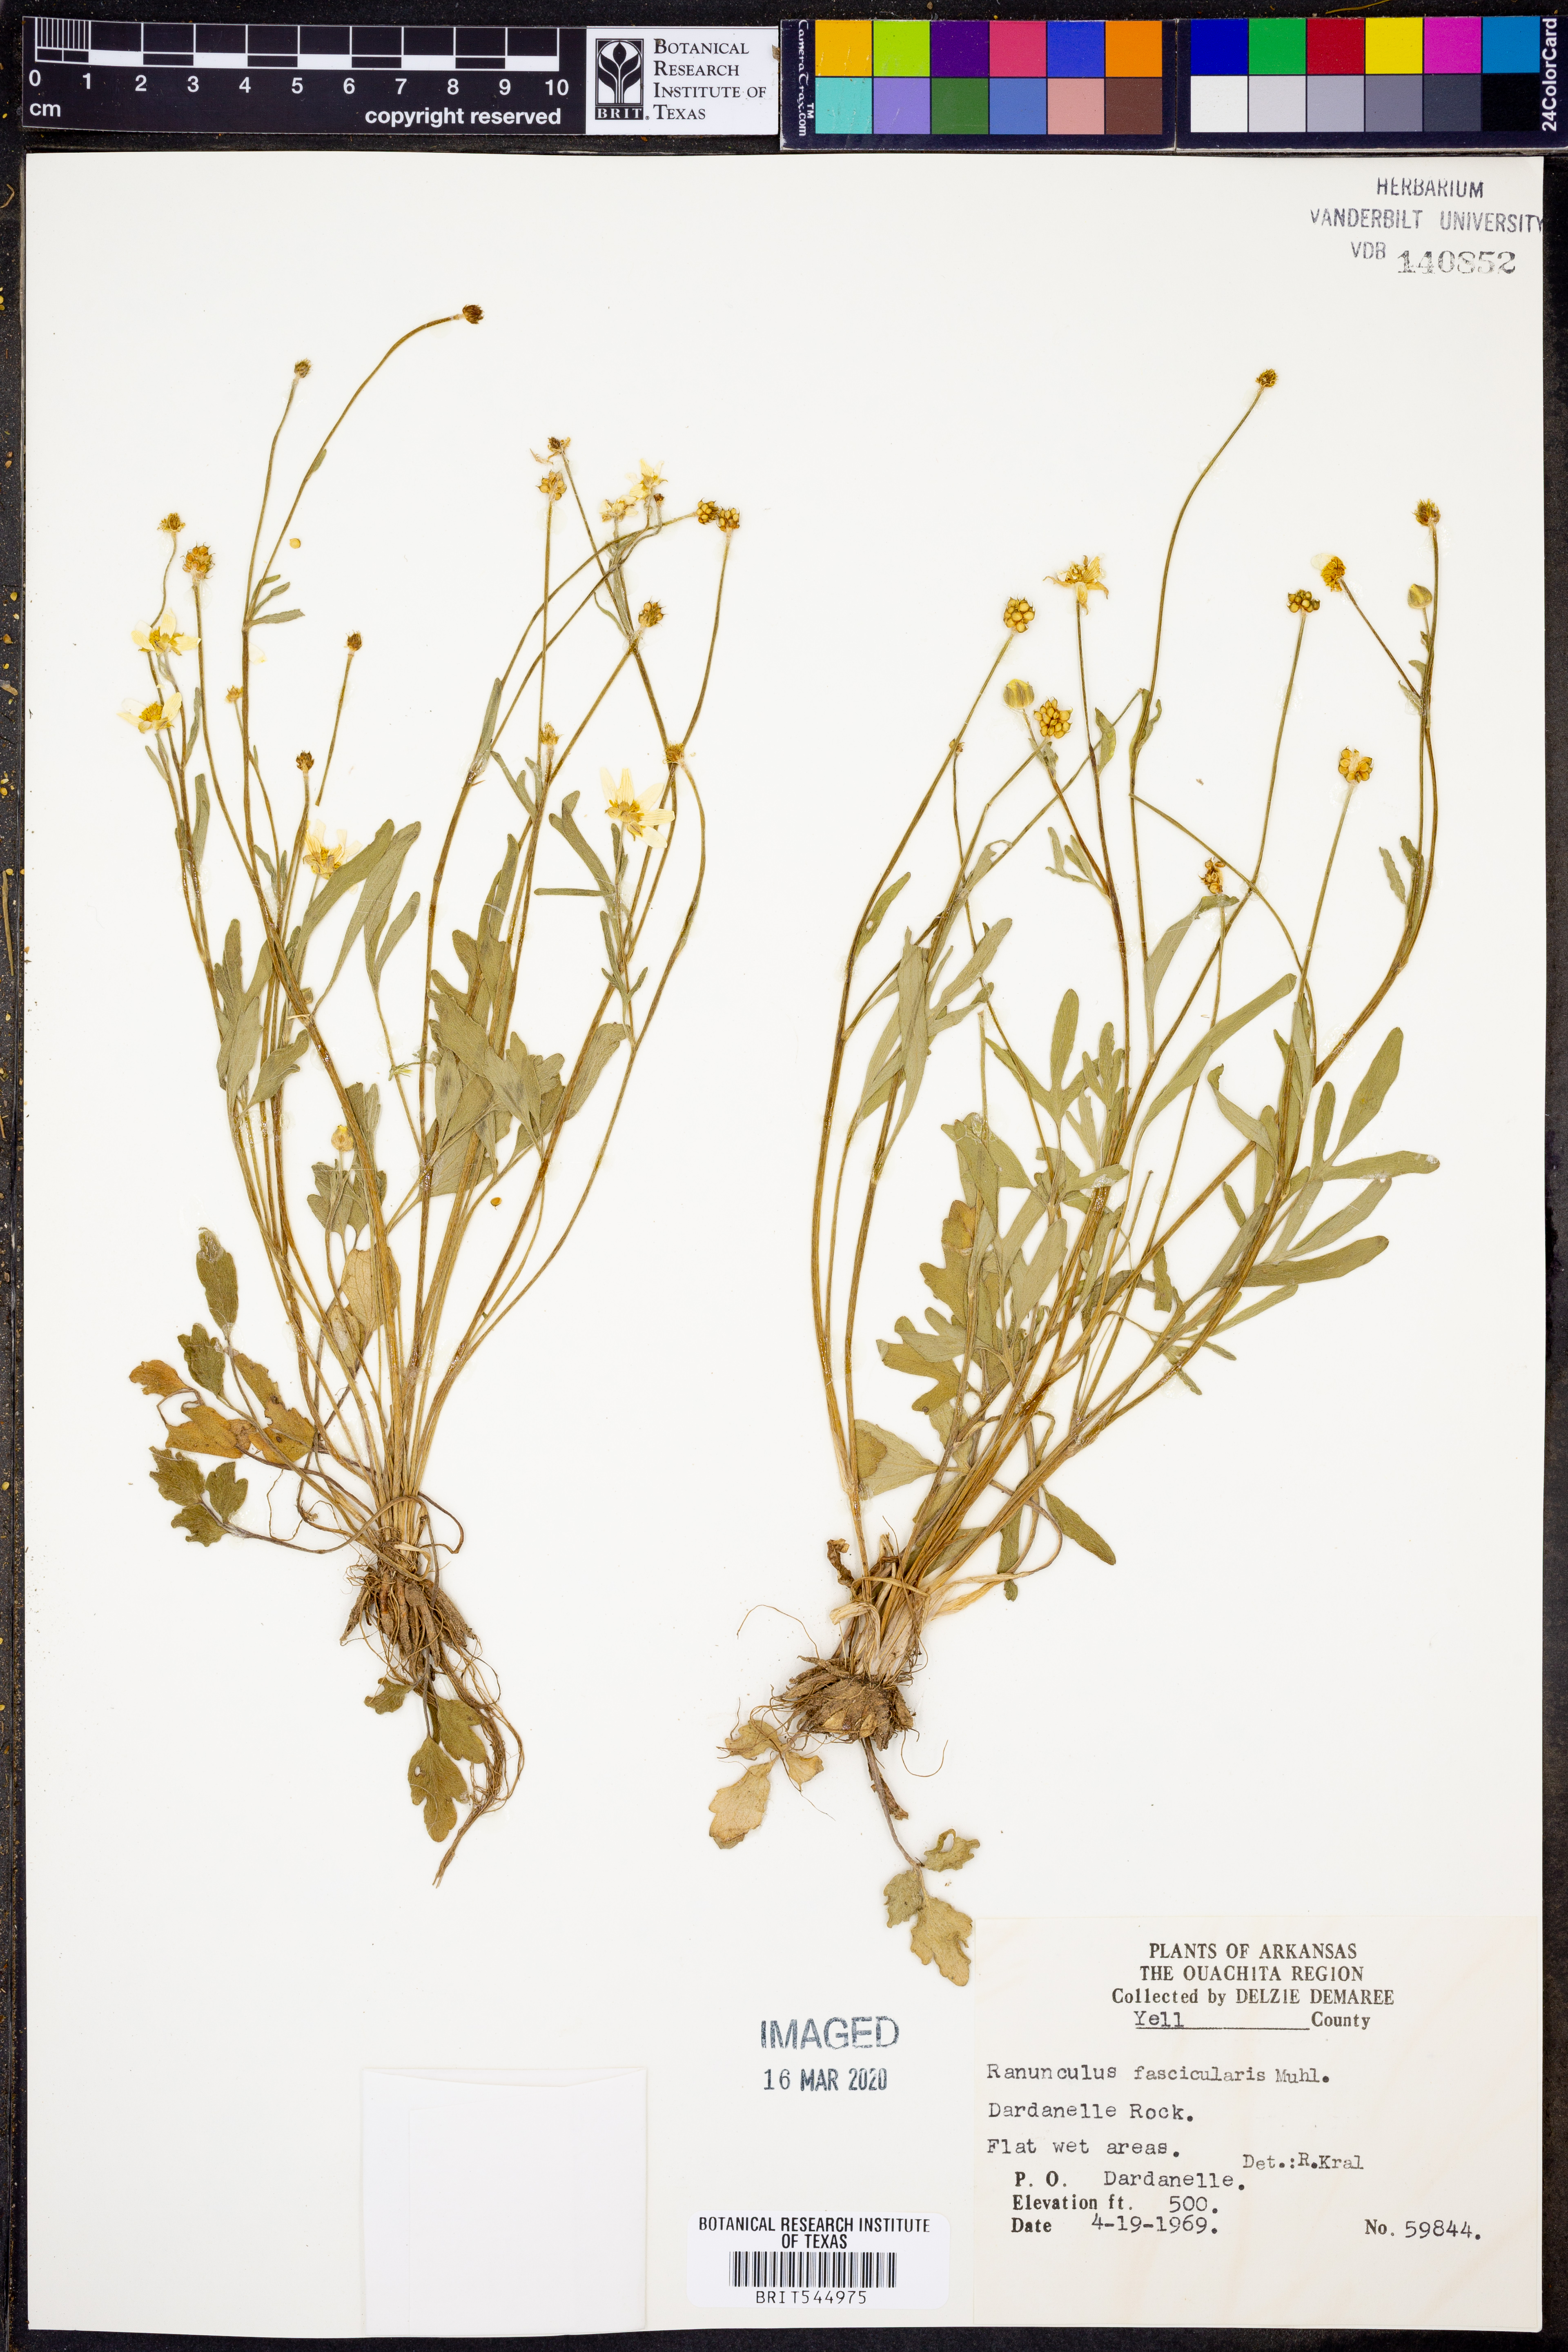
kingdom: Plantae
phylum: Tracheophyta
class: Magnoliopsida
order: Ranunculales
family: Ranunculaceae
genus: Ranunculus
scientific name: Ranunculus fascicularis
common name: Early buttercup
